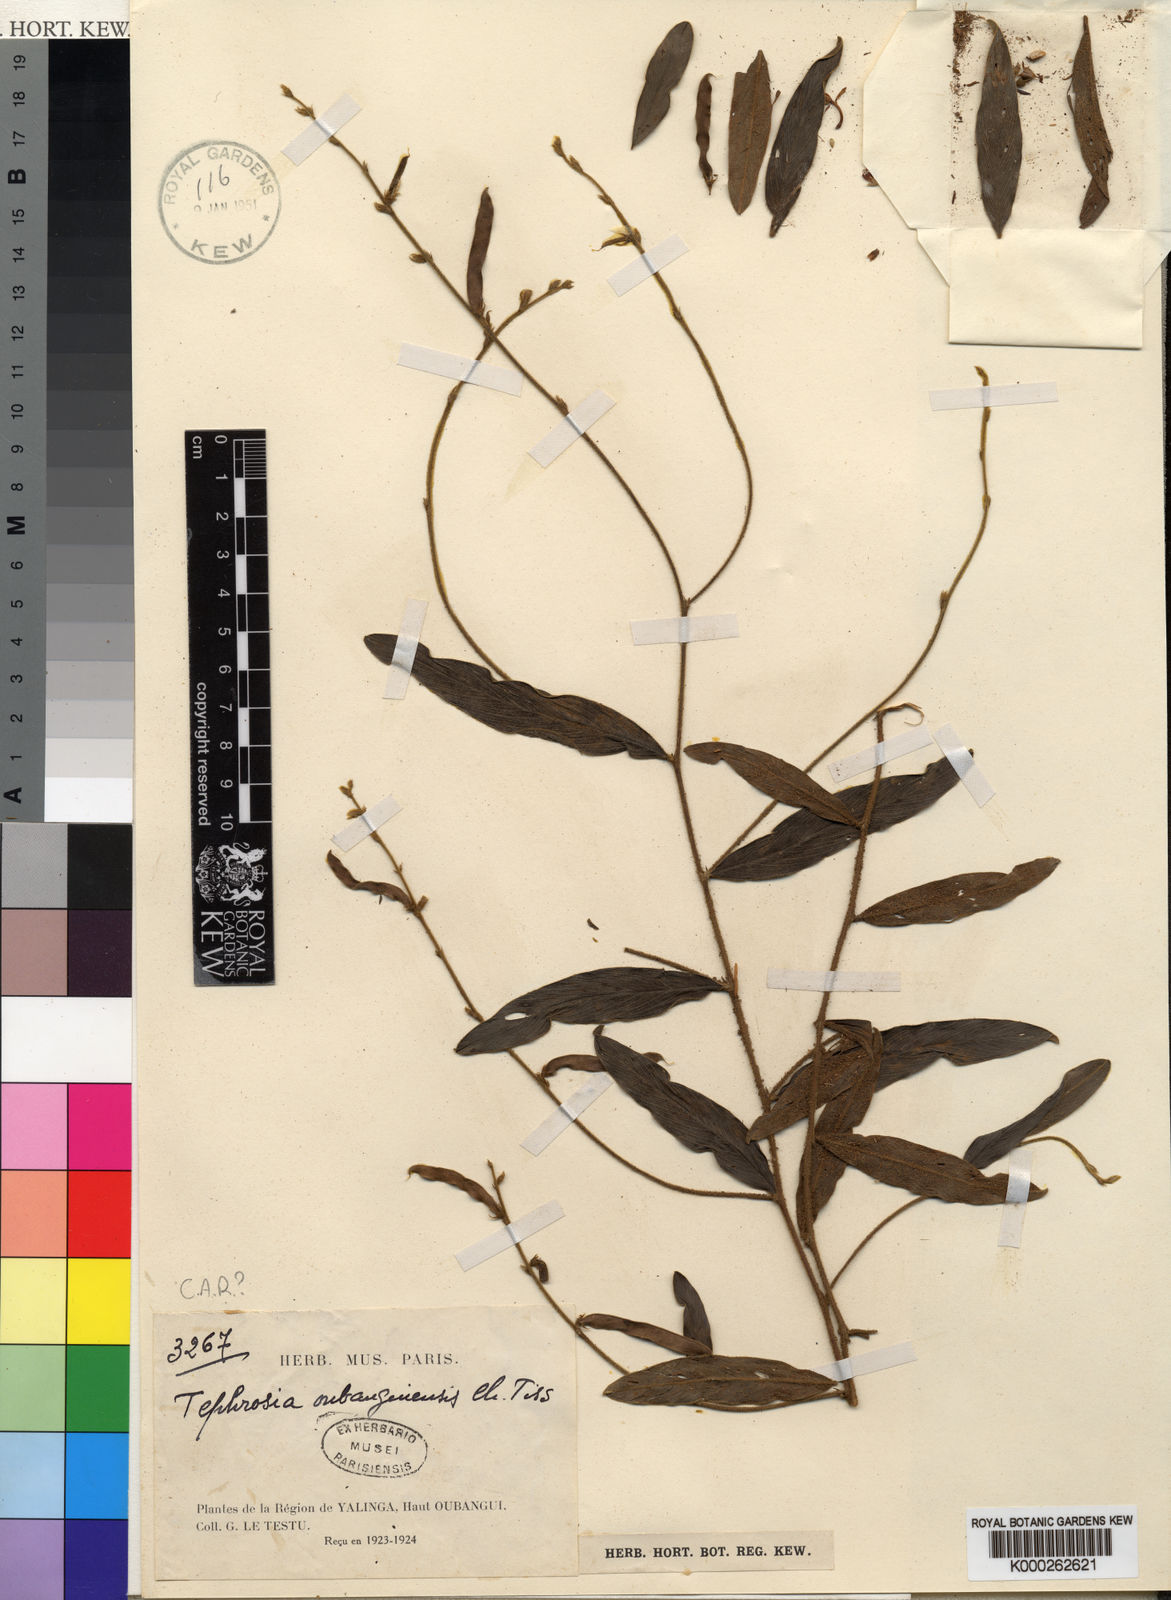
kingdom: Plantae
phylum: Tracheophyta
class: Magnoliopsida
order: Fabales
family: Fabaceae
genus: Tephrosia
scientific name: Tephrosia oubanguiensis
